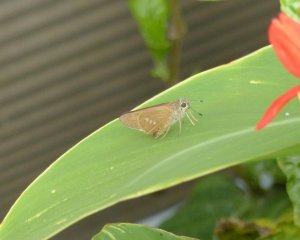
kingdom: Animalia
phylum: Arthropoda
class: Insecta
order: Lepidoptera
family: Hesperiidae
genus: Calpodes
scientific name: Calpodes ethlius
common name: Brazilian Skipper
